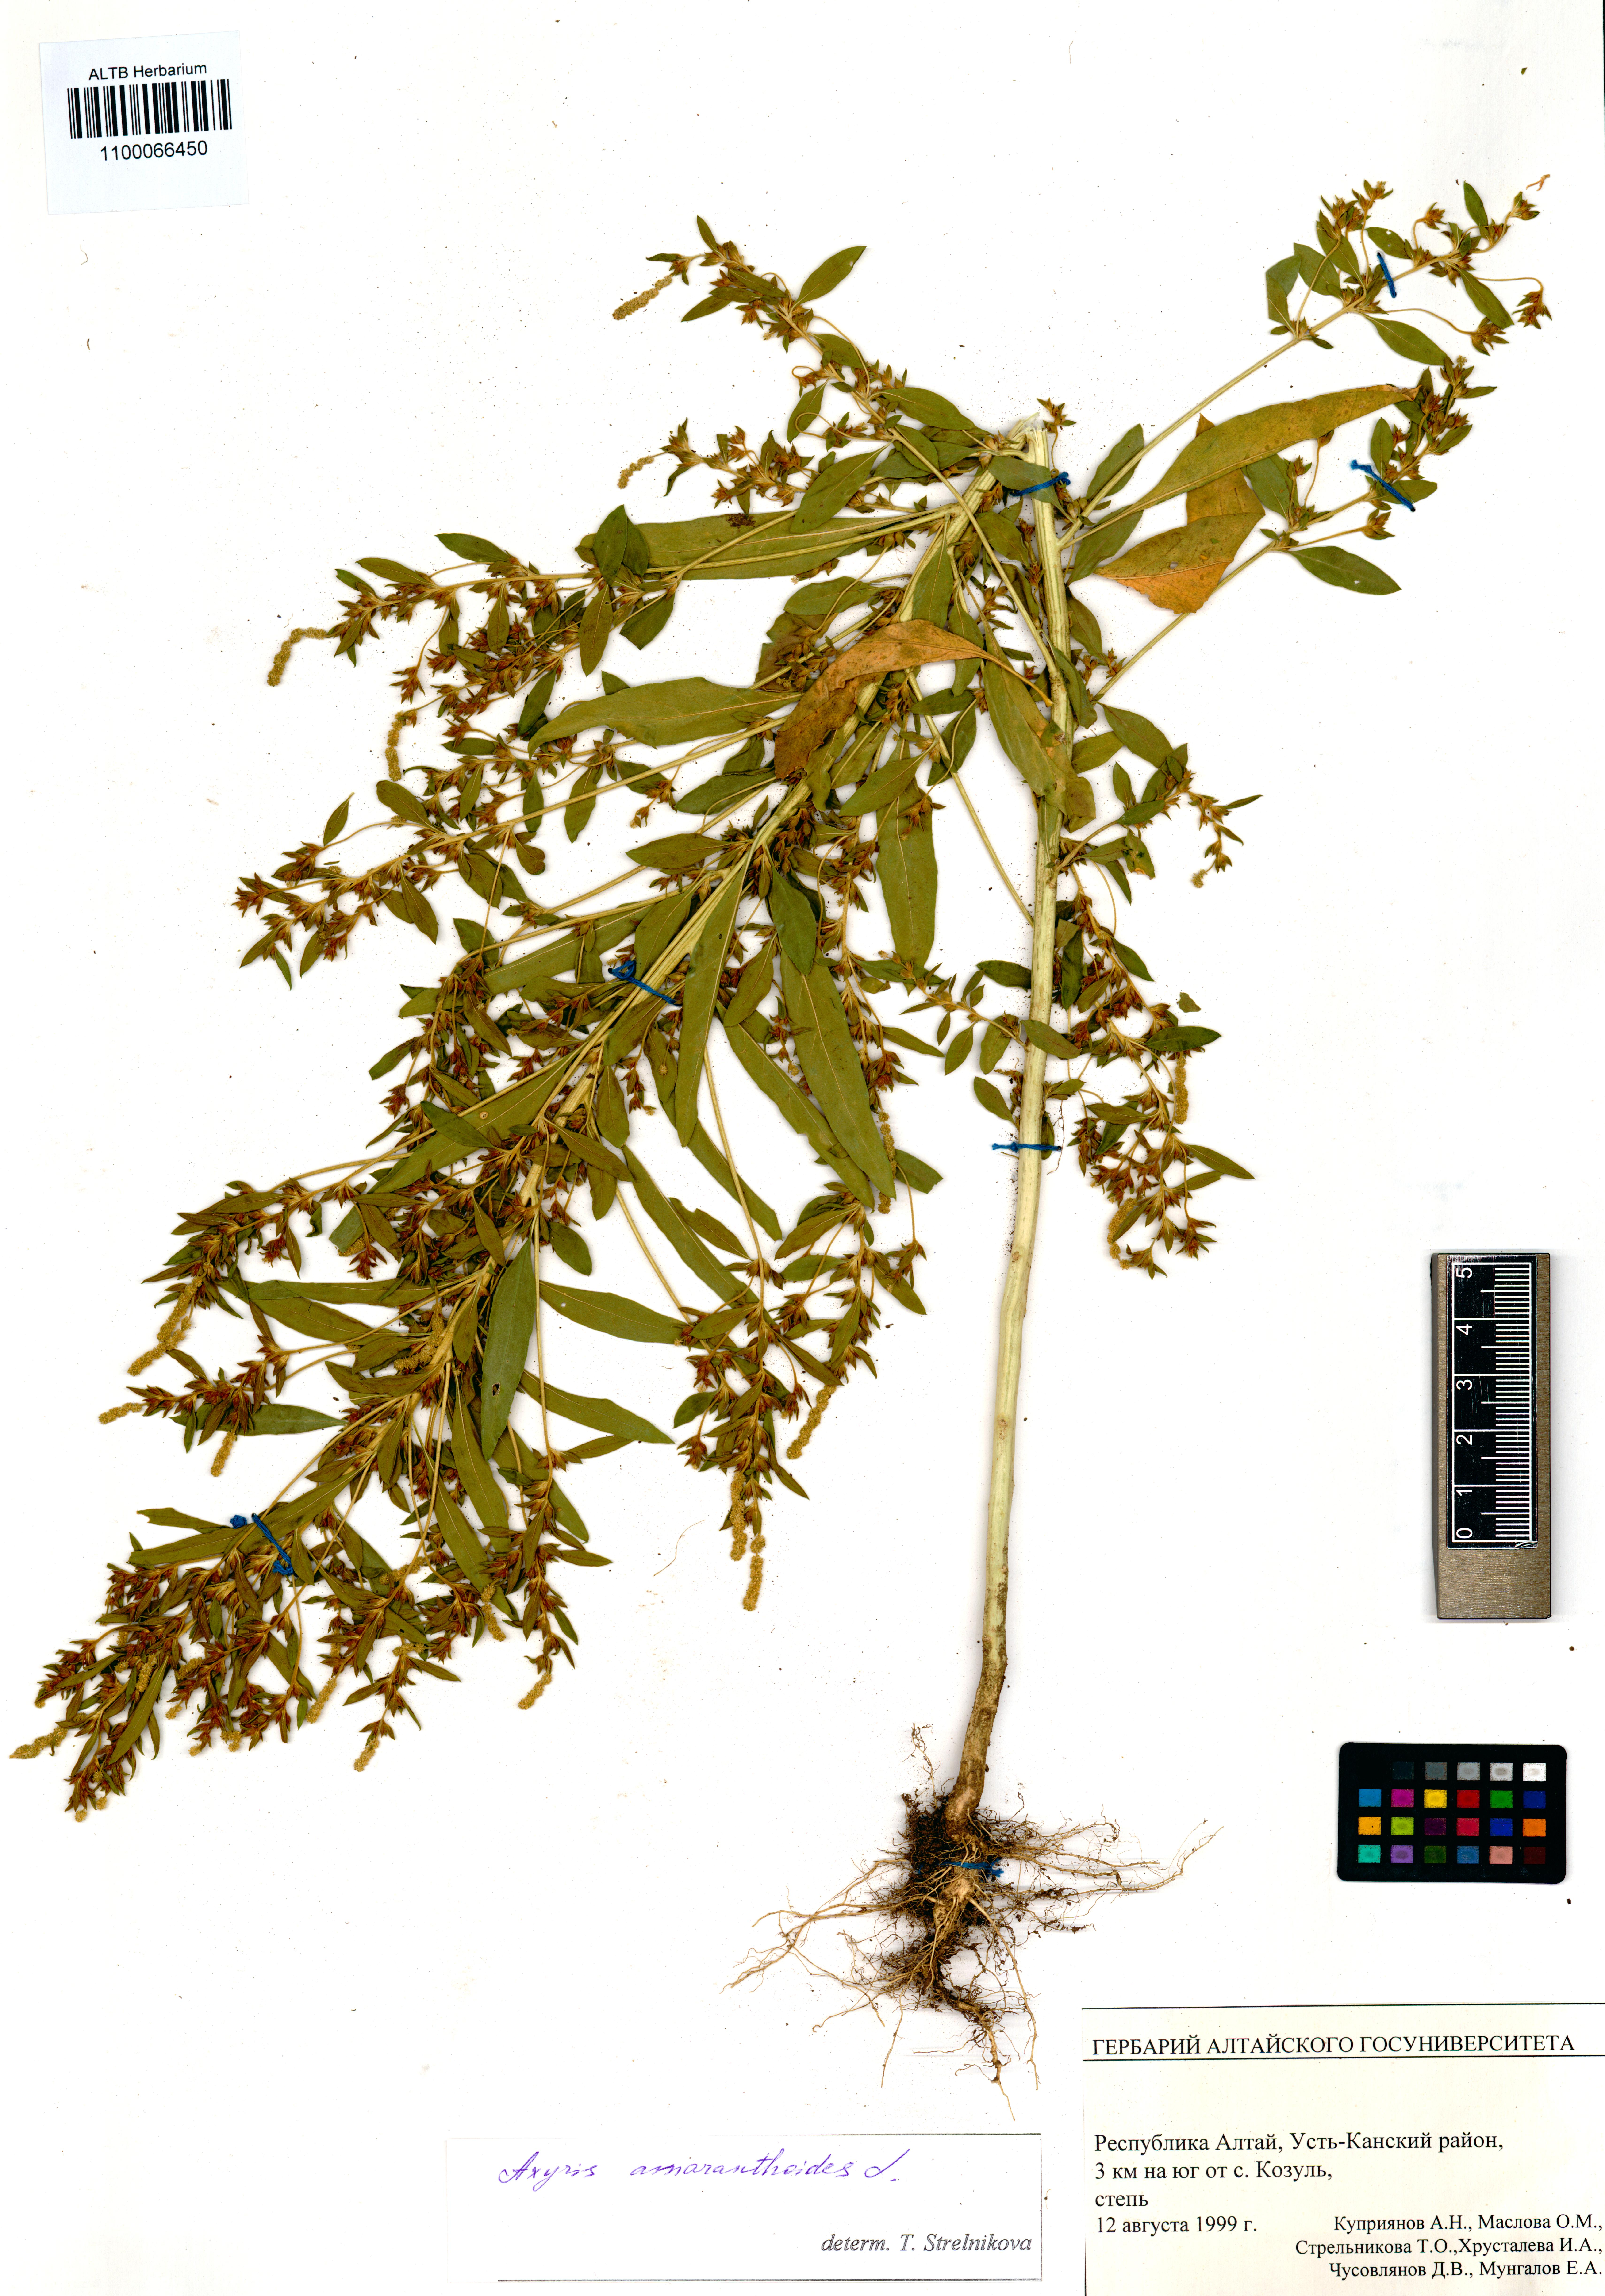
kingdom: Plantae
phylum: Tracheophyta
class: Magnoliopsida
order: Caryophyllales
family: Amaranthaceae
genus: Axyris
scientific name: Axyris amaranthoides
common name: Russian pigweed
